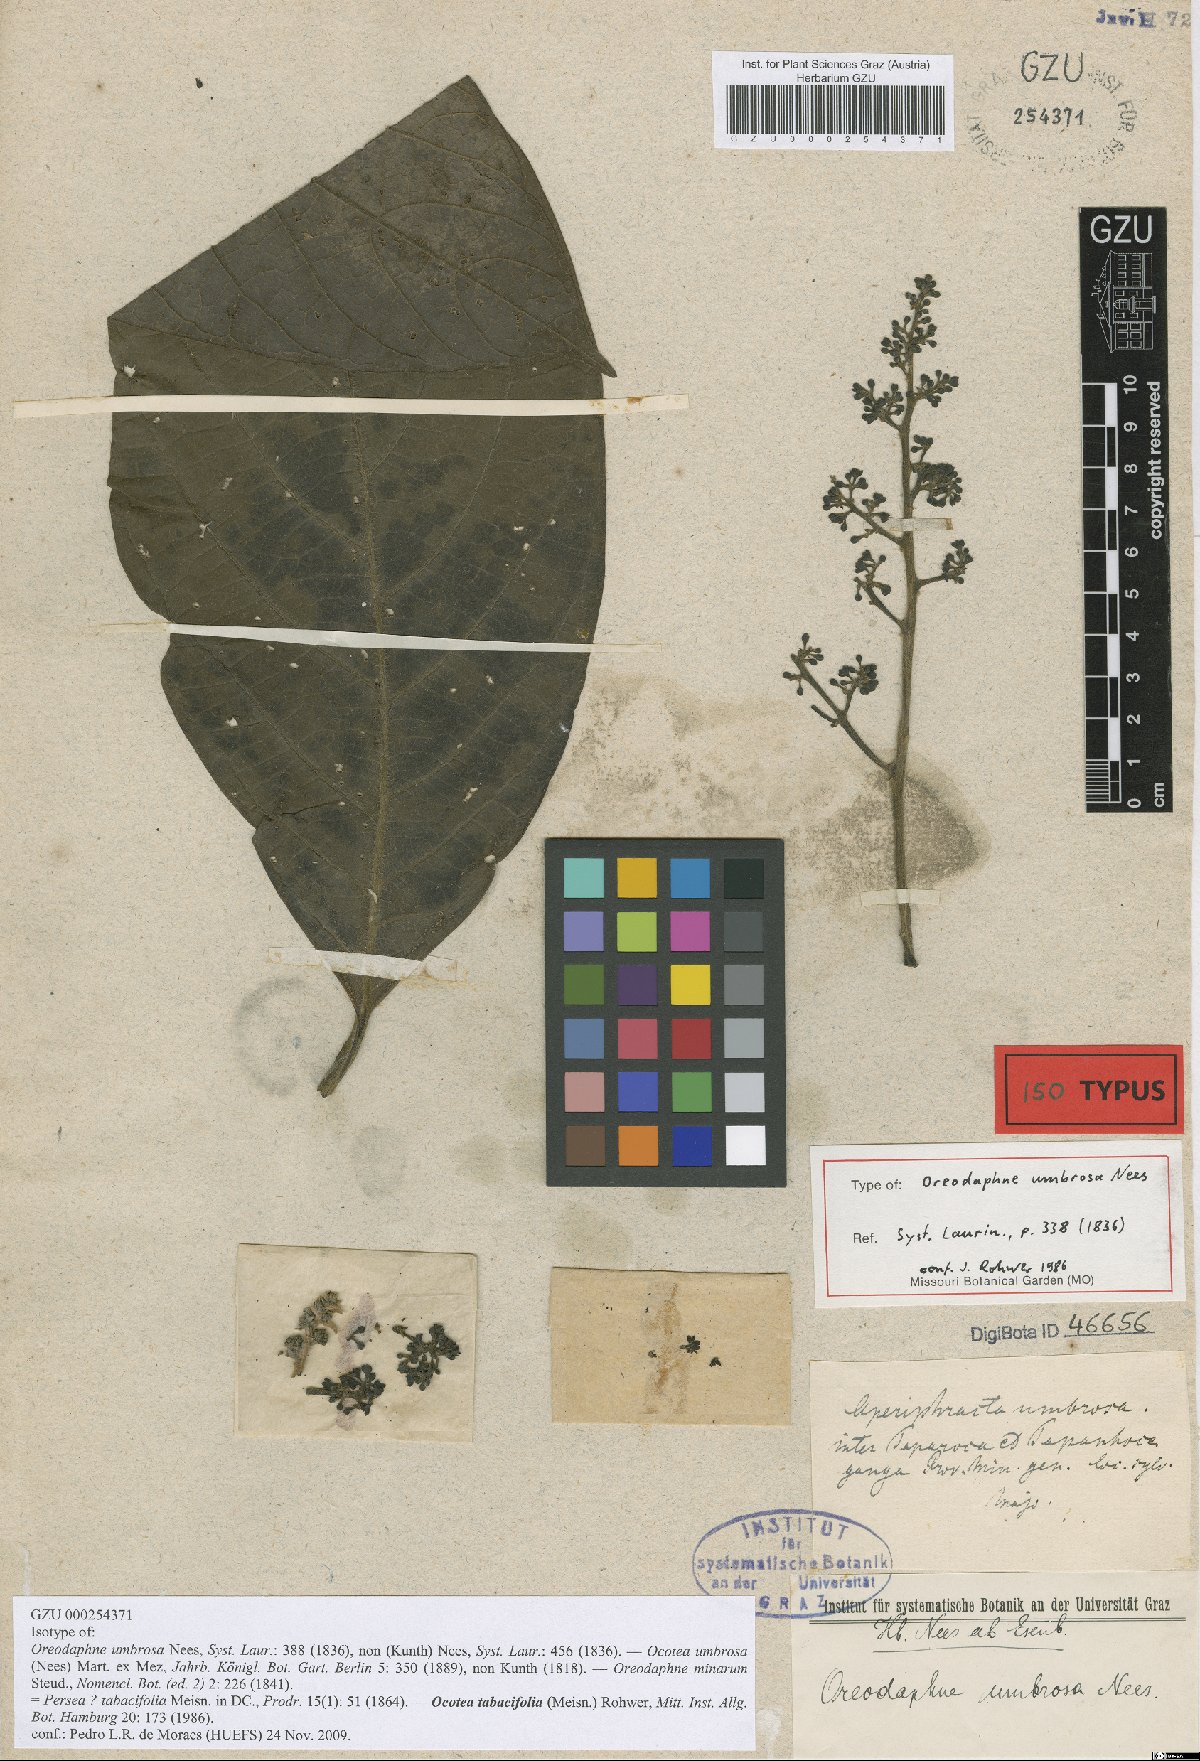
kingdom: Plantae
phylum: Tracheophyta
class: Magnoliopsida
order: Laurales
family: Lauraceae
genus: Damburneya
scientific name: Damburneya umbrosa
